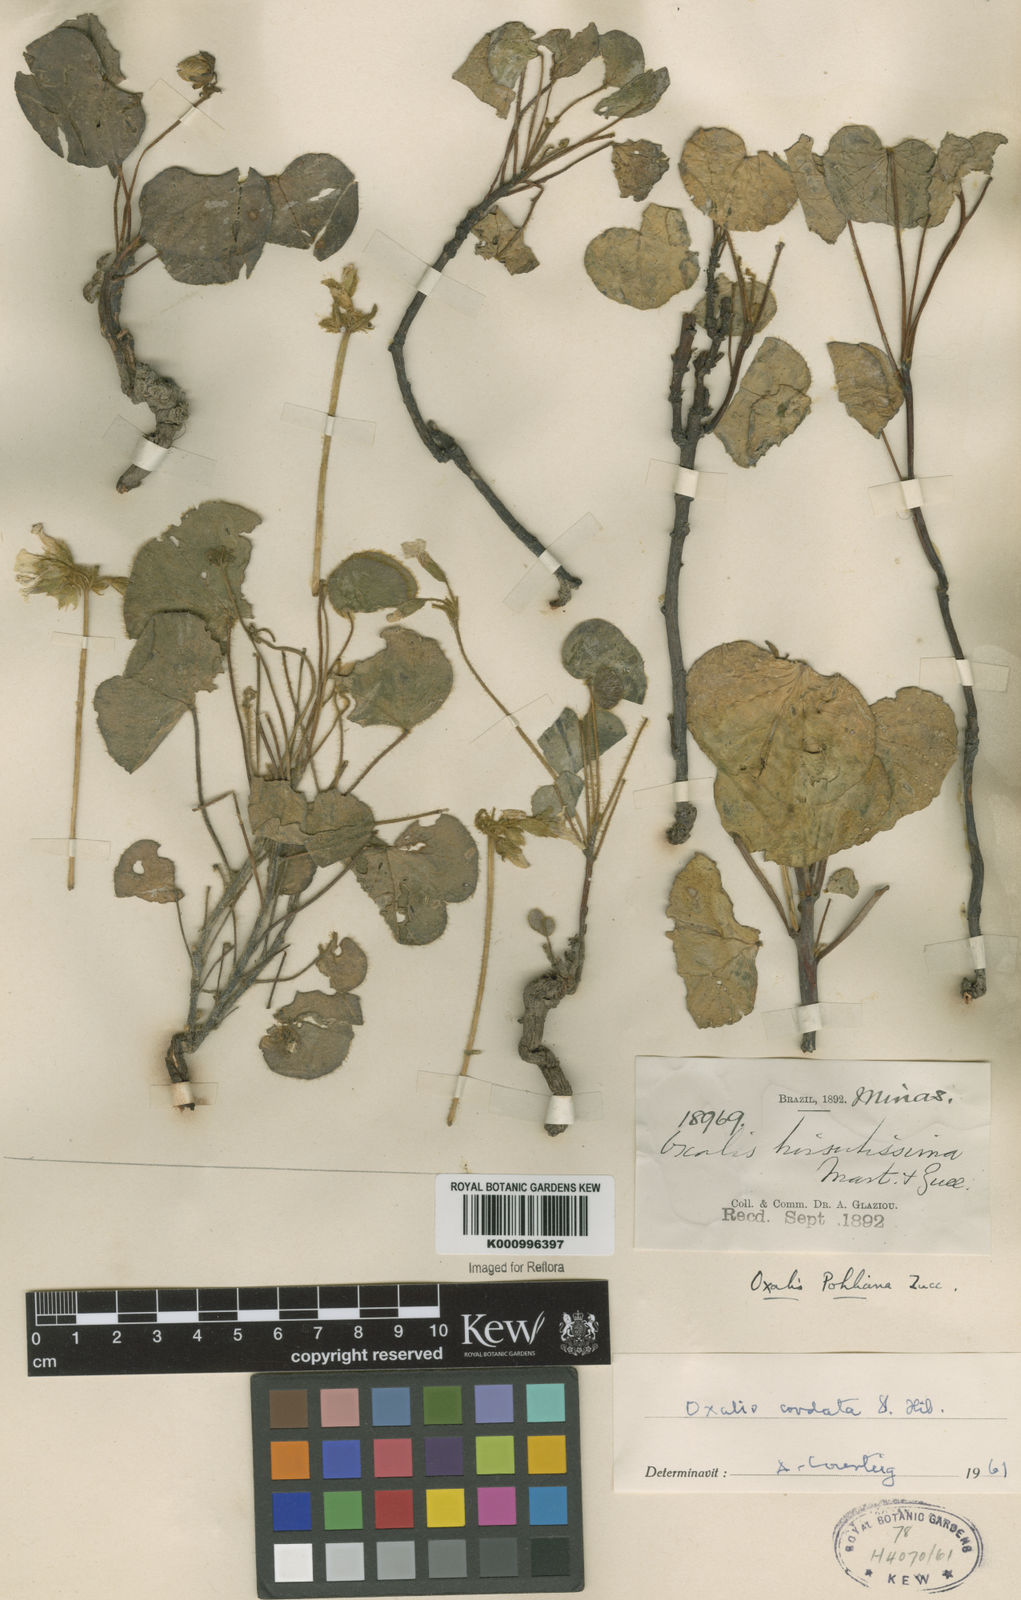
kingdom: Plantae
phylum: Tracheophyta
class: Magnoliopsida
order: Oxalidales
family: Oxalidaceae
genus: Oxalis
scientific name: Oxalis cordata
